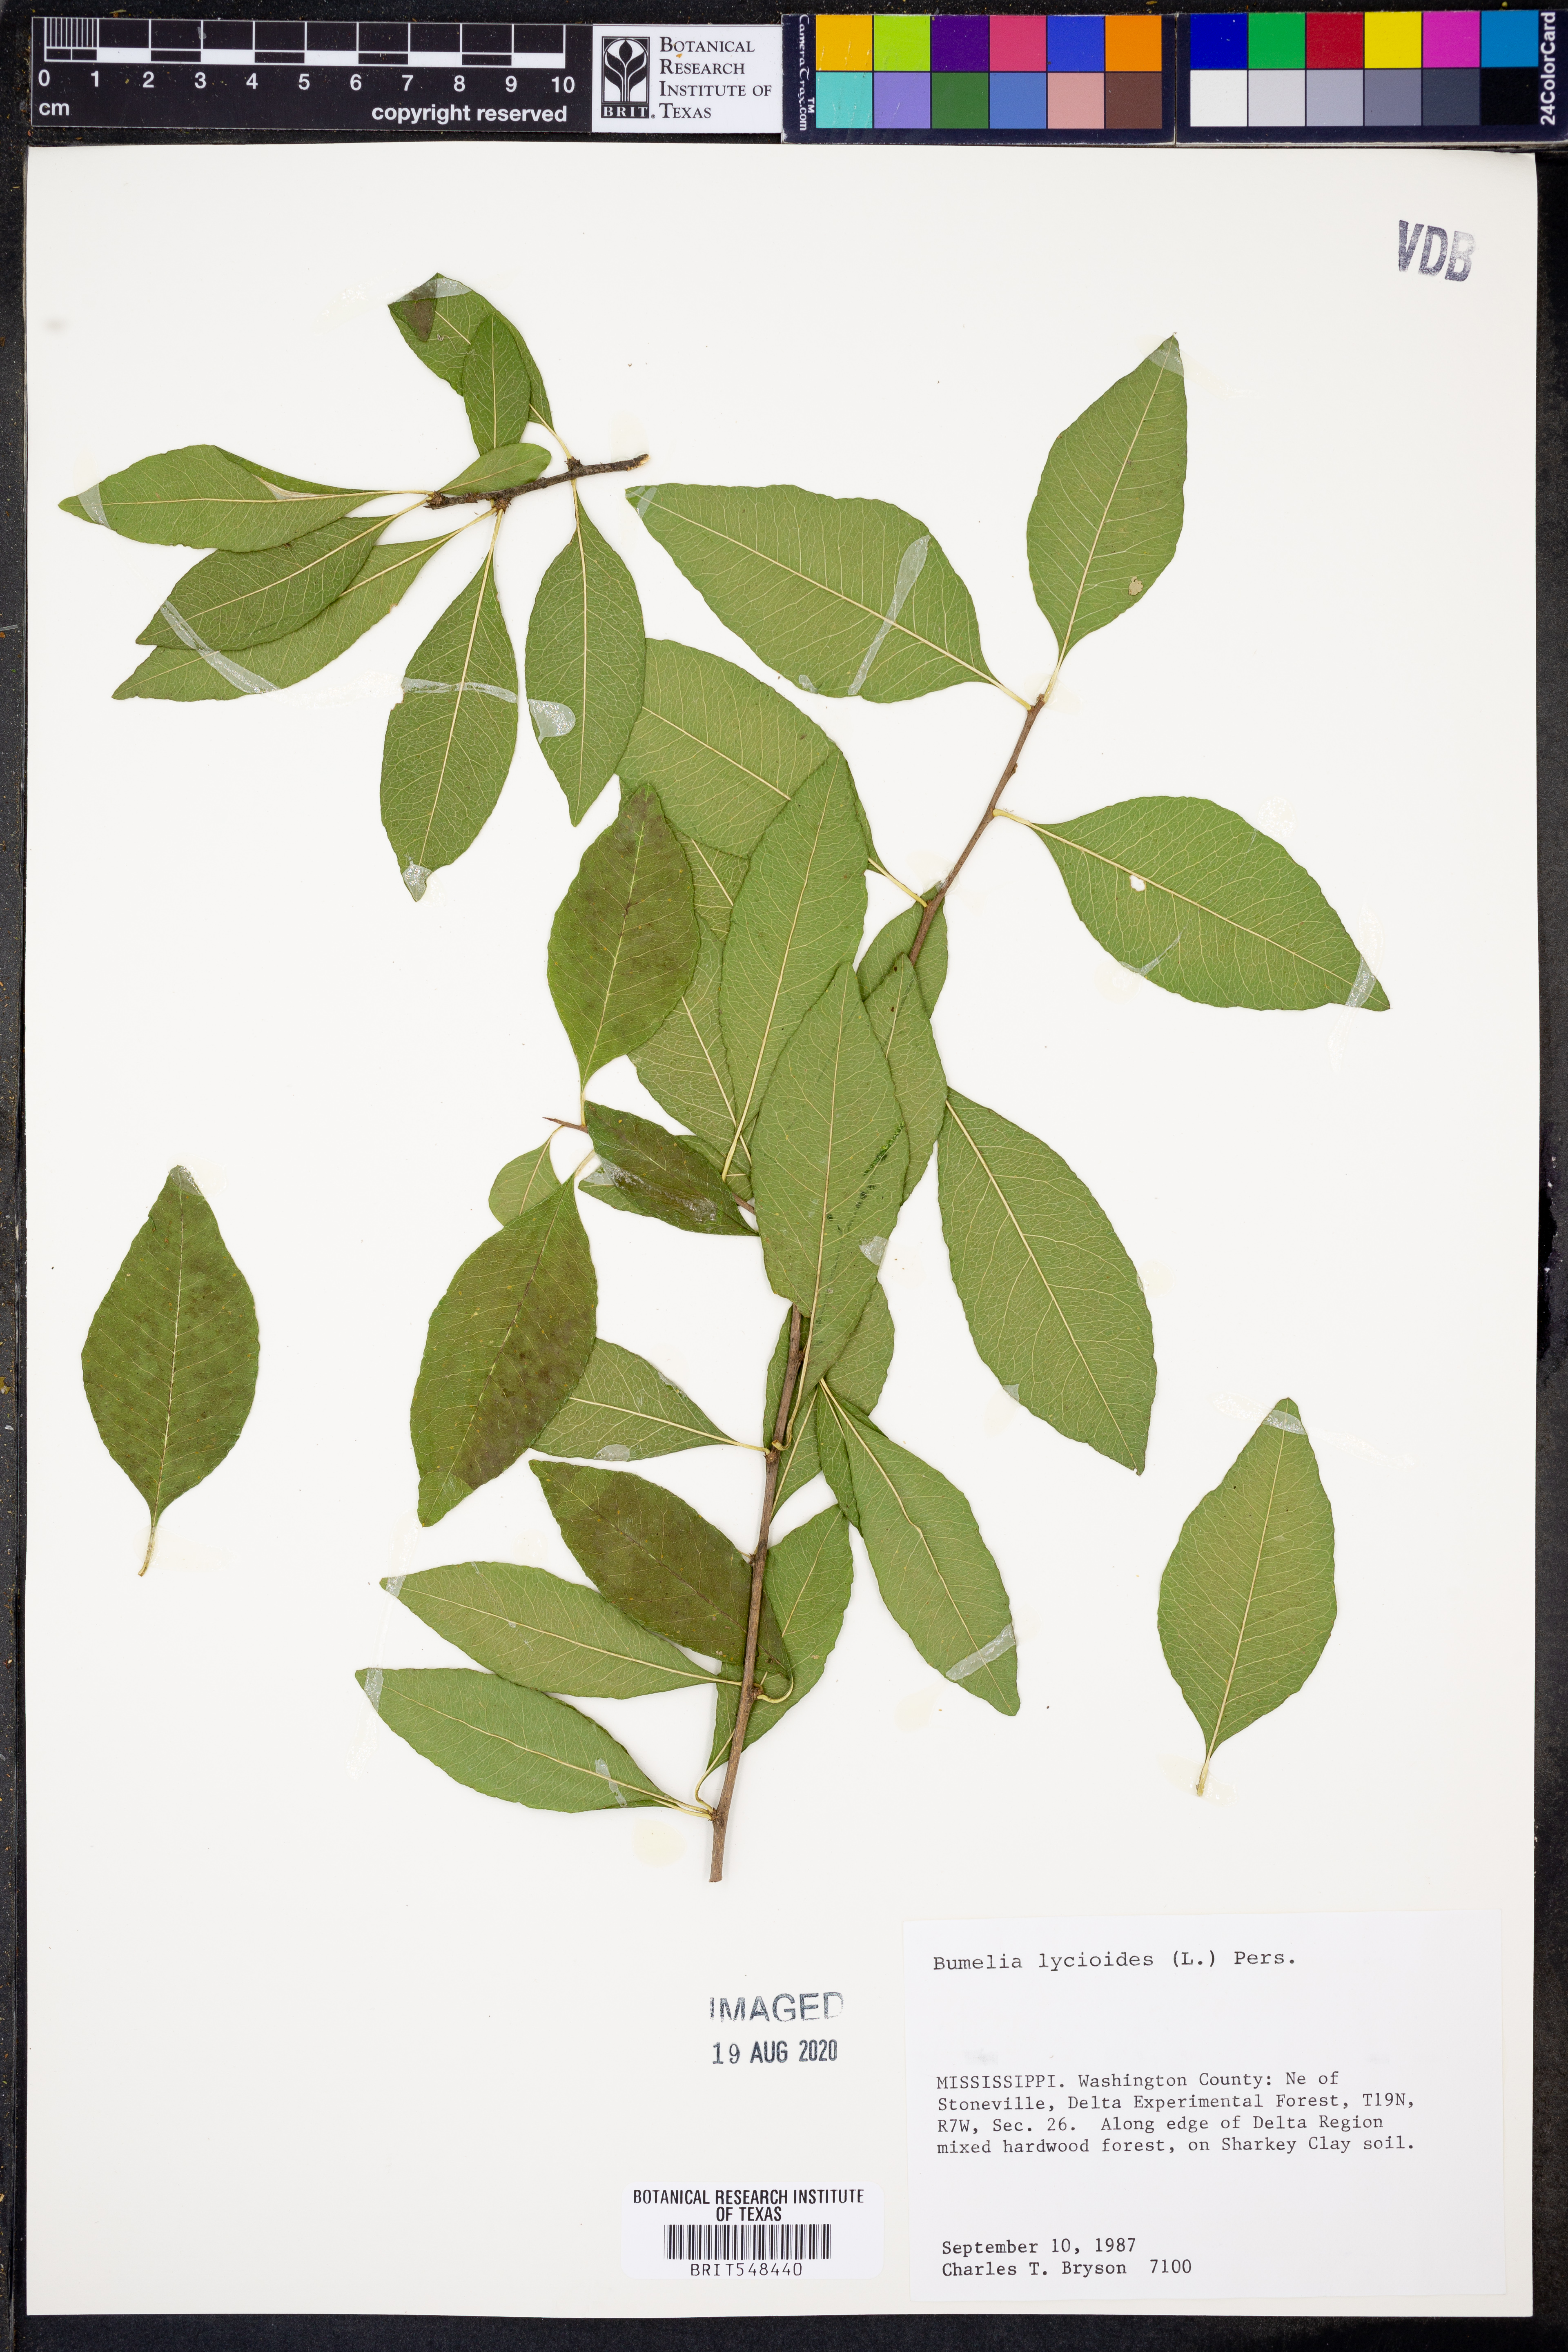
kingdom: Plantae
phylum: Tracheophyta
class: Magnoliopsida
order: Ericales
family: Sapotaceae
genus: Sideroxylon
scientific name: Sideroxylon lycioides
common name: Buckthorn bumelia
